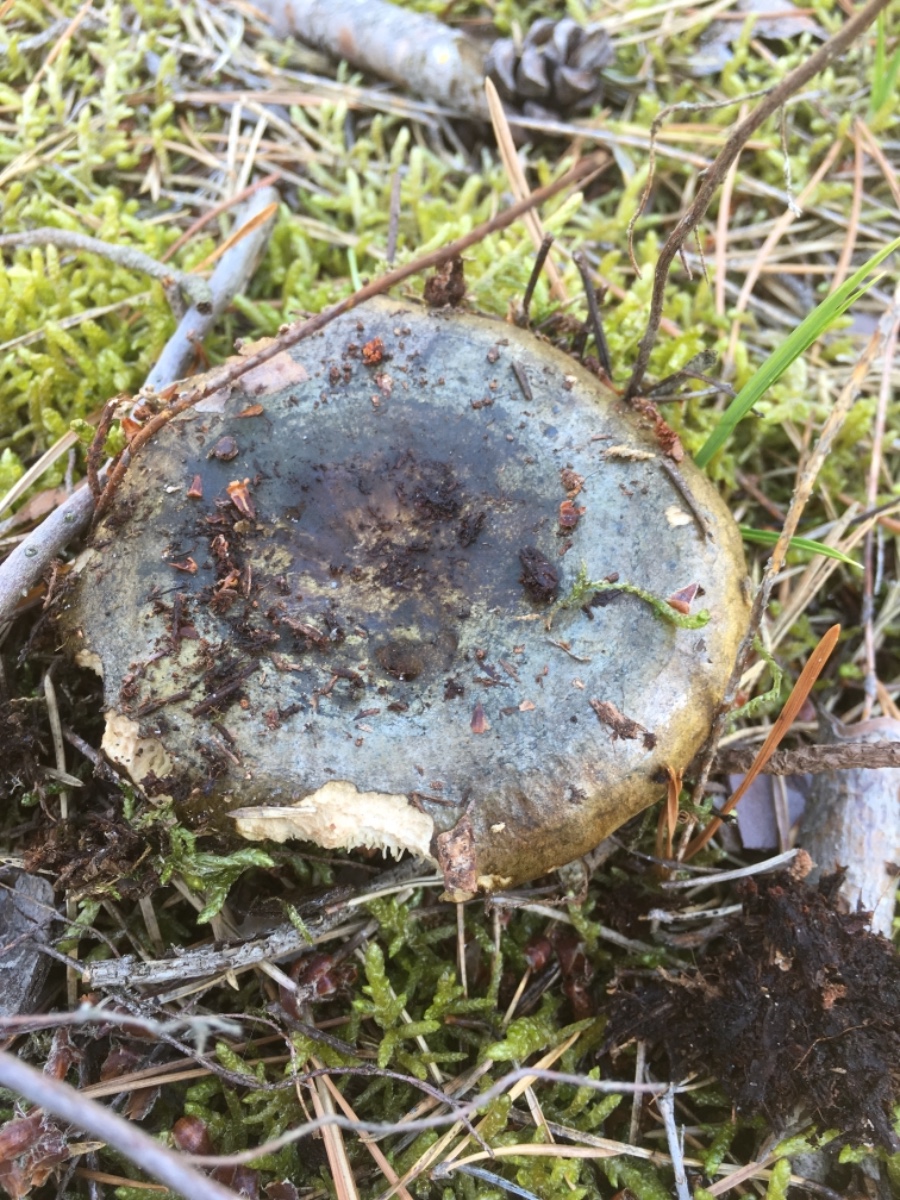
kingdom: Fungi
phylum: Basidiomycota
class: Agaricomycetes
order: Russulales
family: Russulaceae
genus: Lactarius
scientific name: Lactarius necator
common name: manddraber-mælkehat
